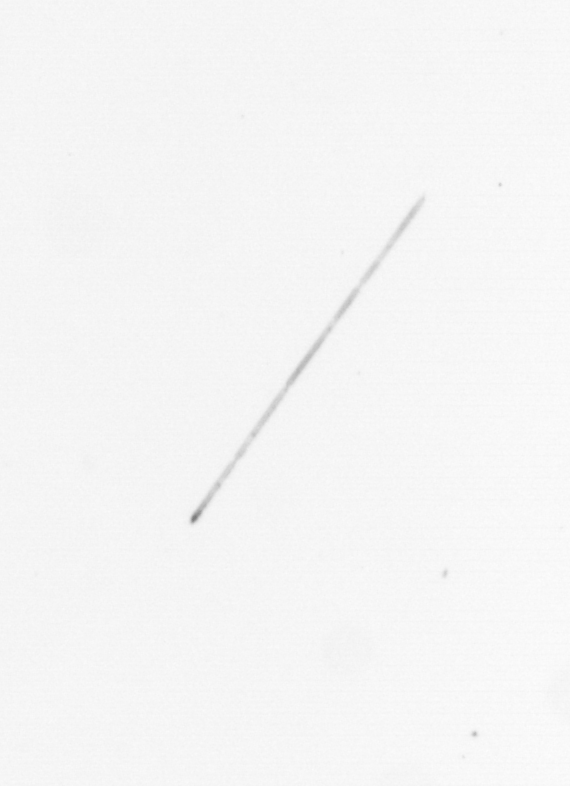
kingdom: Chromista
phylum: Ochrophyta
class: Bacillariophyceae
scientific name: Bacillariophyceae
